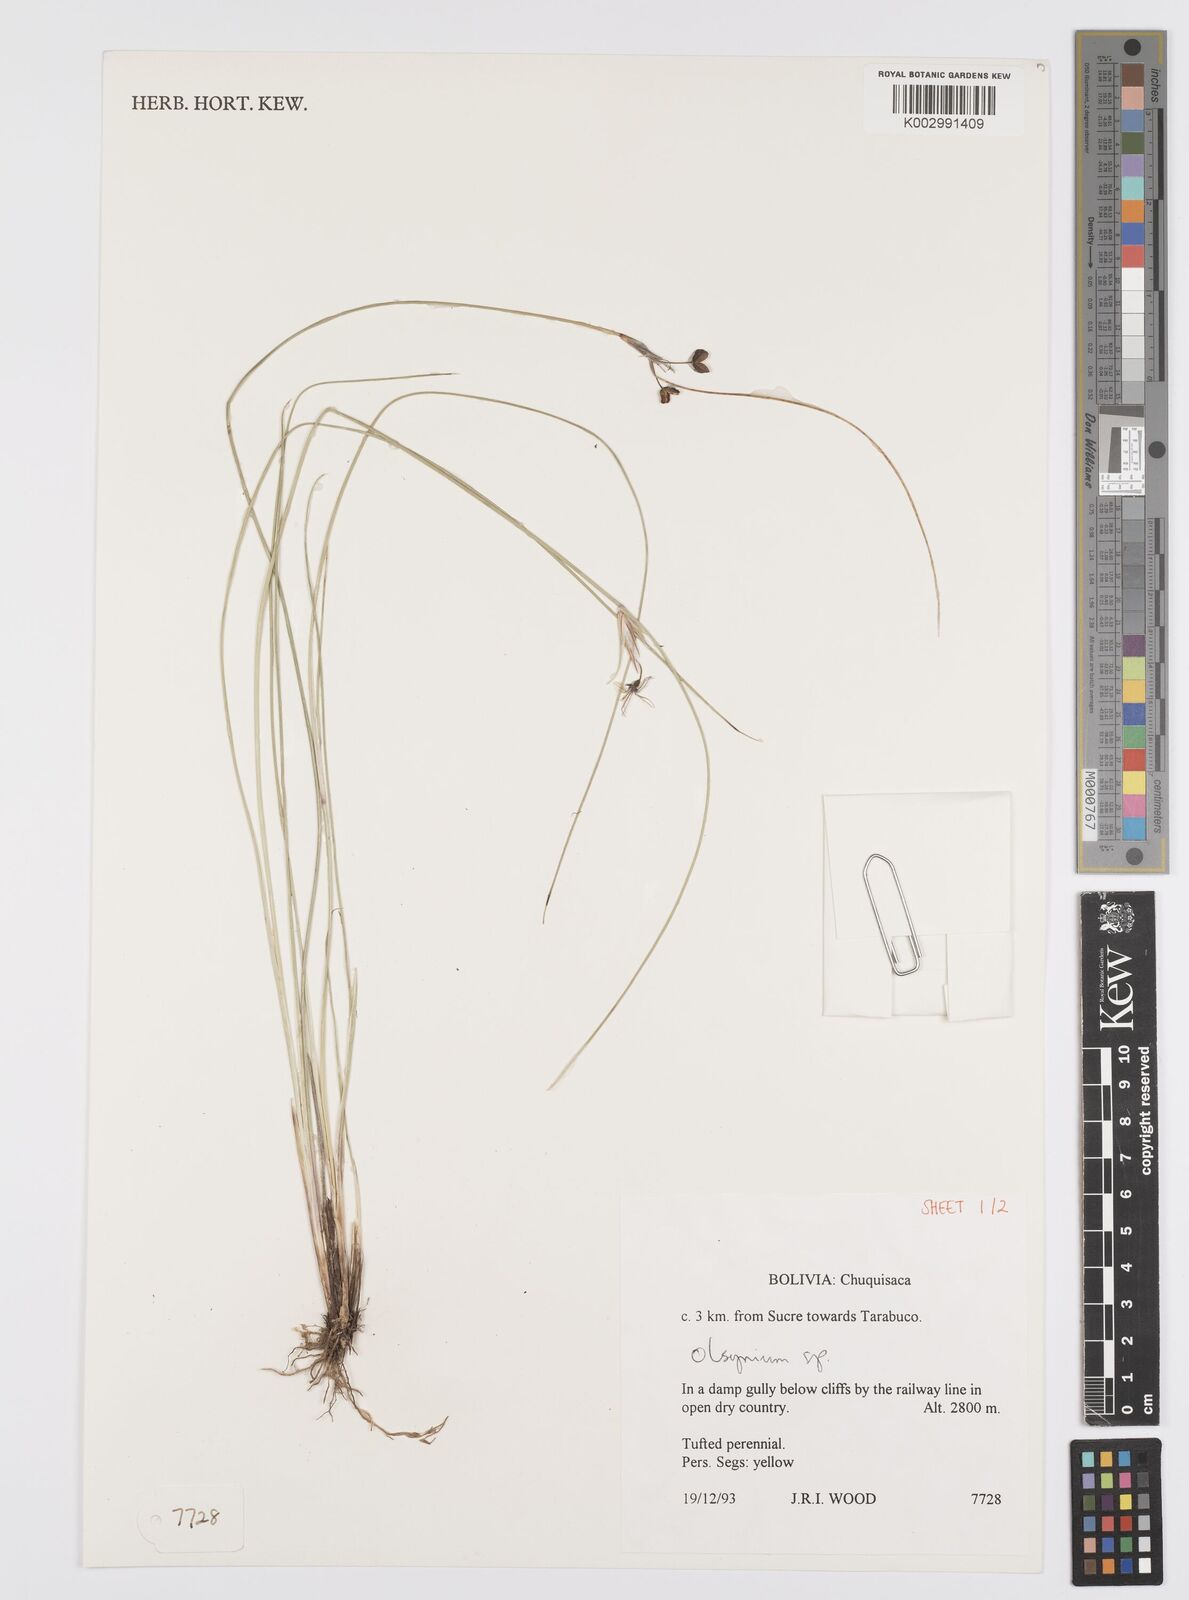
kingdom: Plantae
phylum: Tracheophyta
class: Liliopsida
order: Asparagales
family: Iridaceae
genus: Olsynium
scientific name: Olsynium
